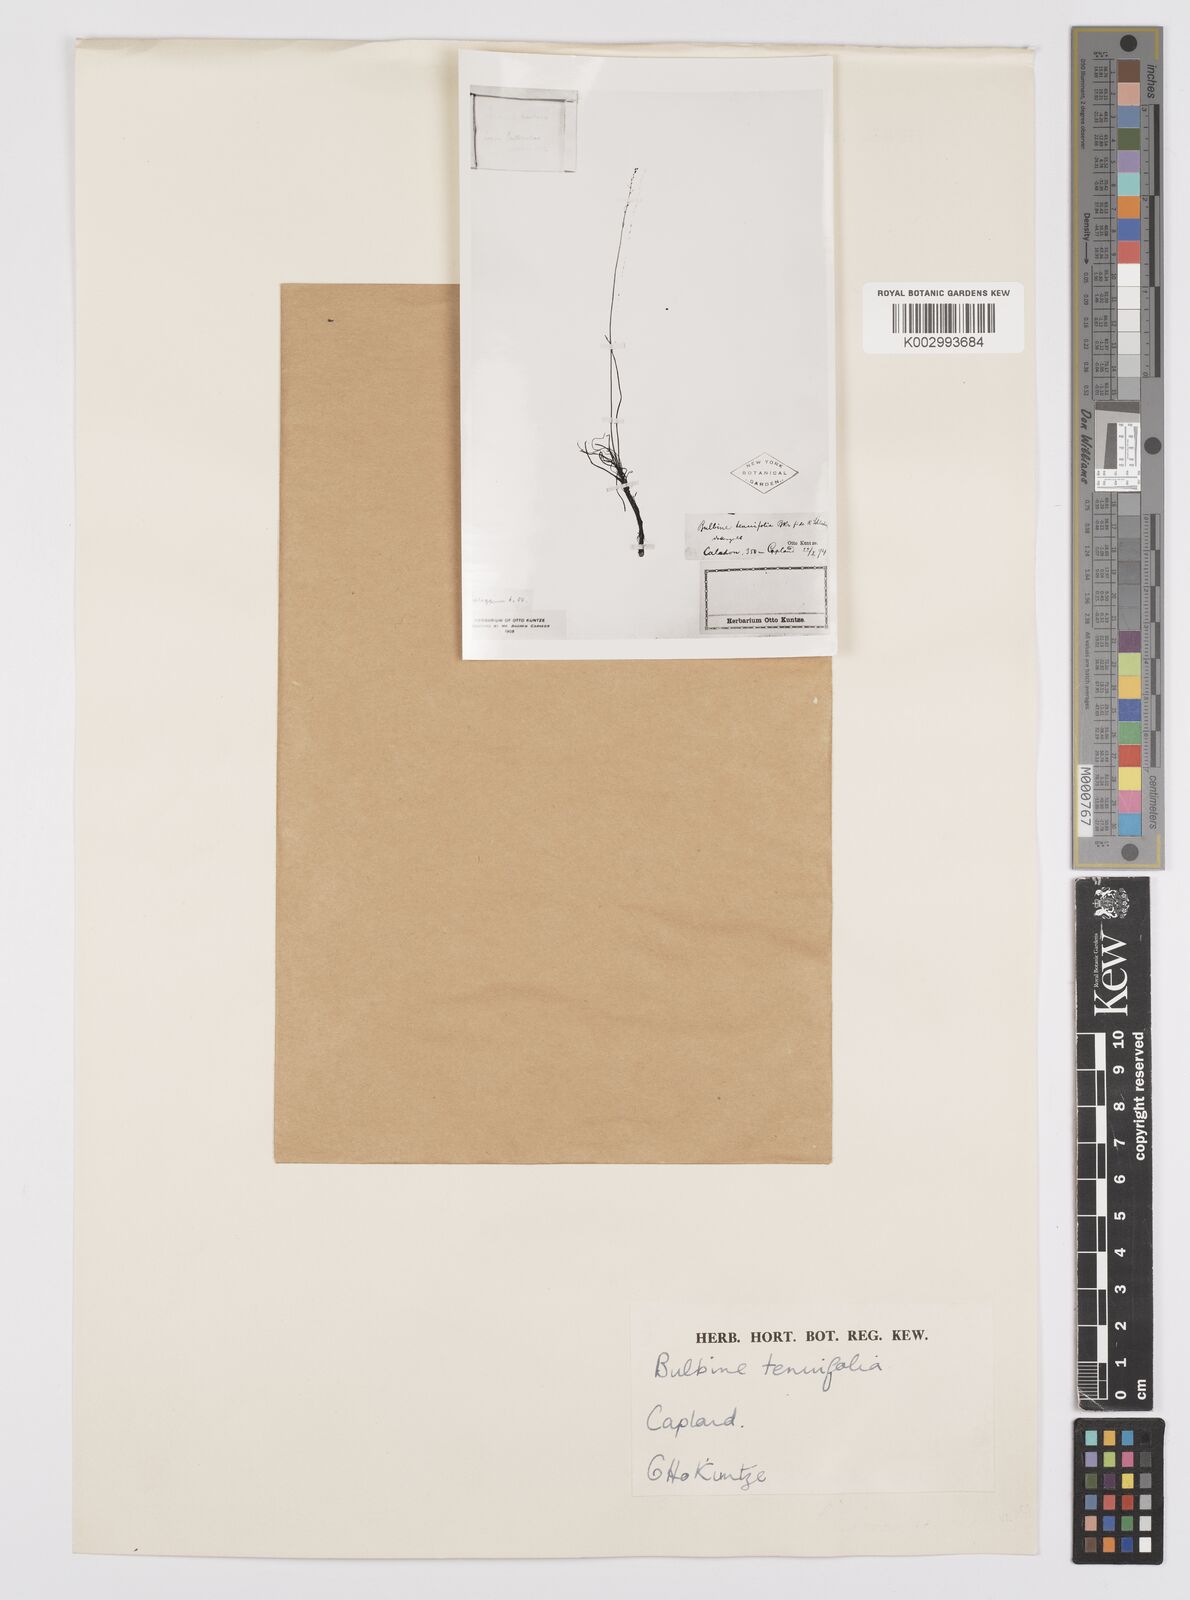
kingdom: Plantae
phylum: Tracheophyta
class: Liliopsida
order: Asparagales
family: Asphodelaceae
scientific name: Asphodelaceae
